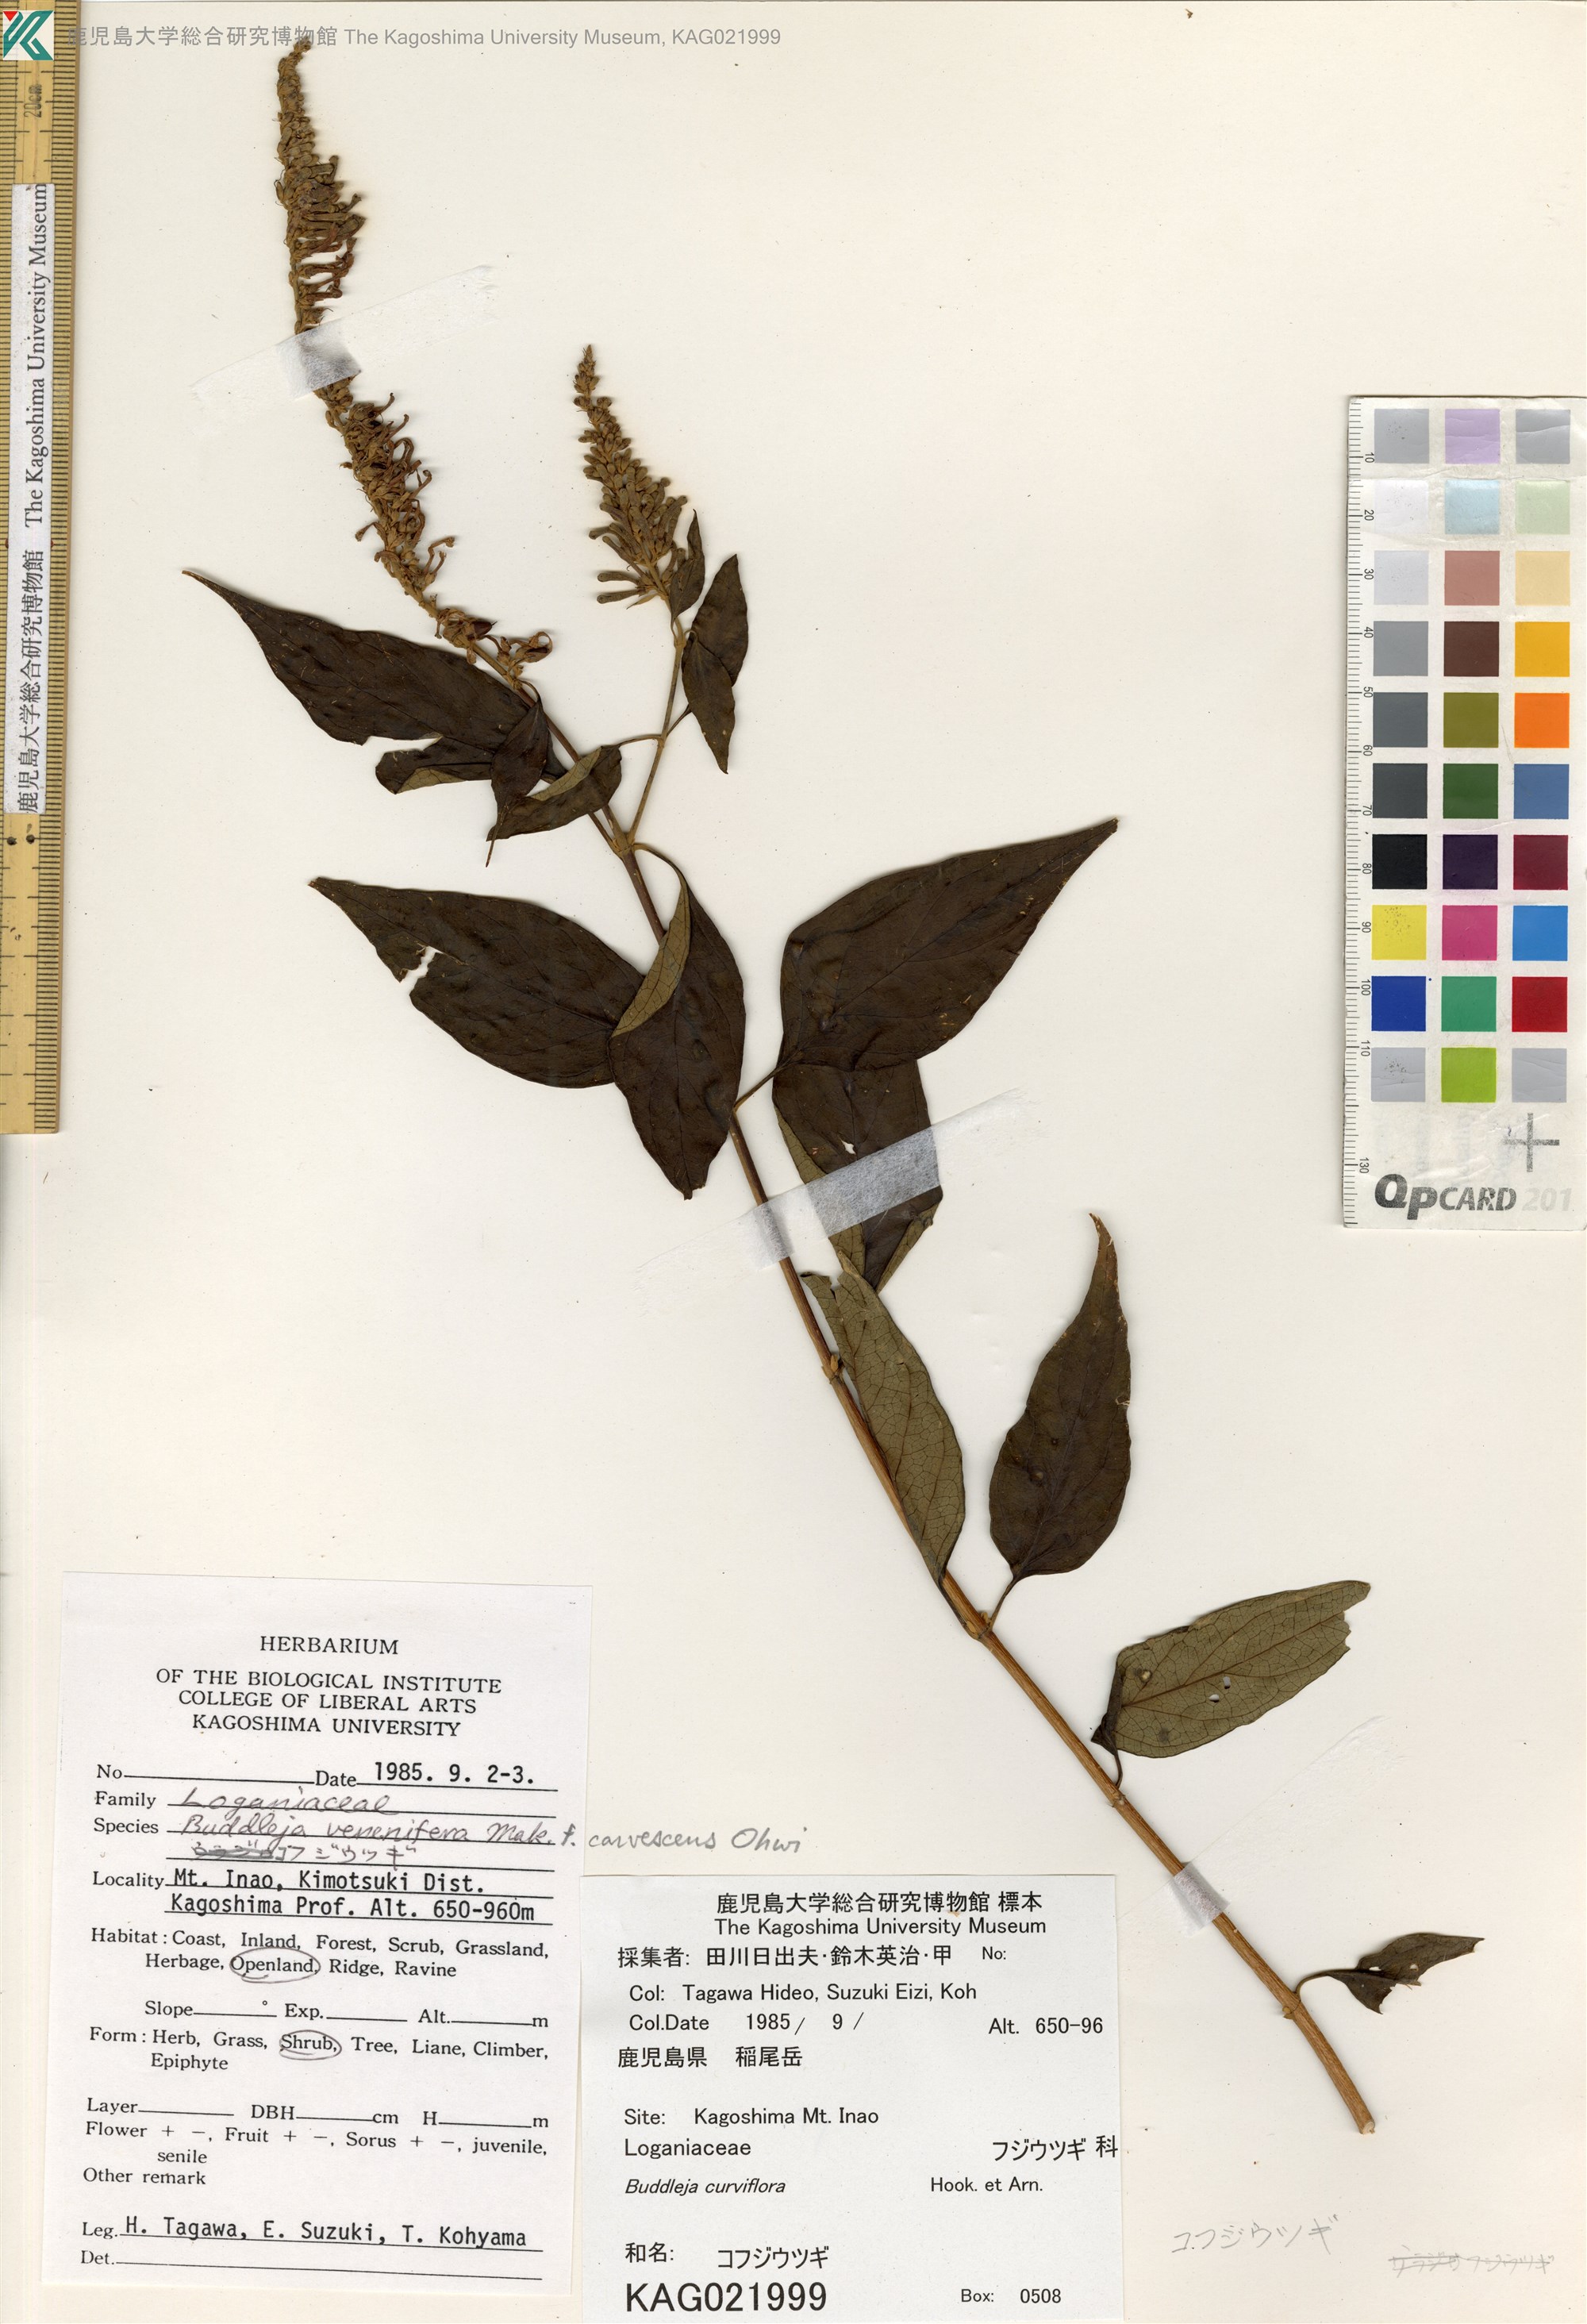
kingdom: Plantae
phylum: Tracheophyta
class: Magnoliopsida
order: Lamiales
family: Scrophulariaceae
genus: Buddleja
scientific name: Buddleja curviflora
